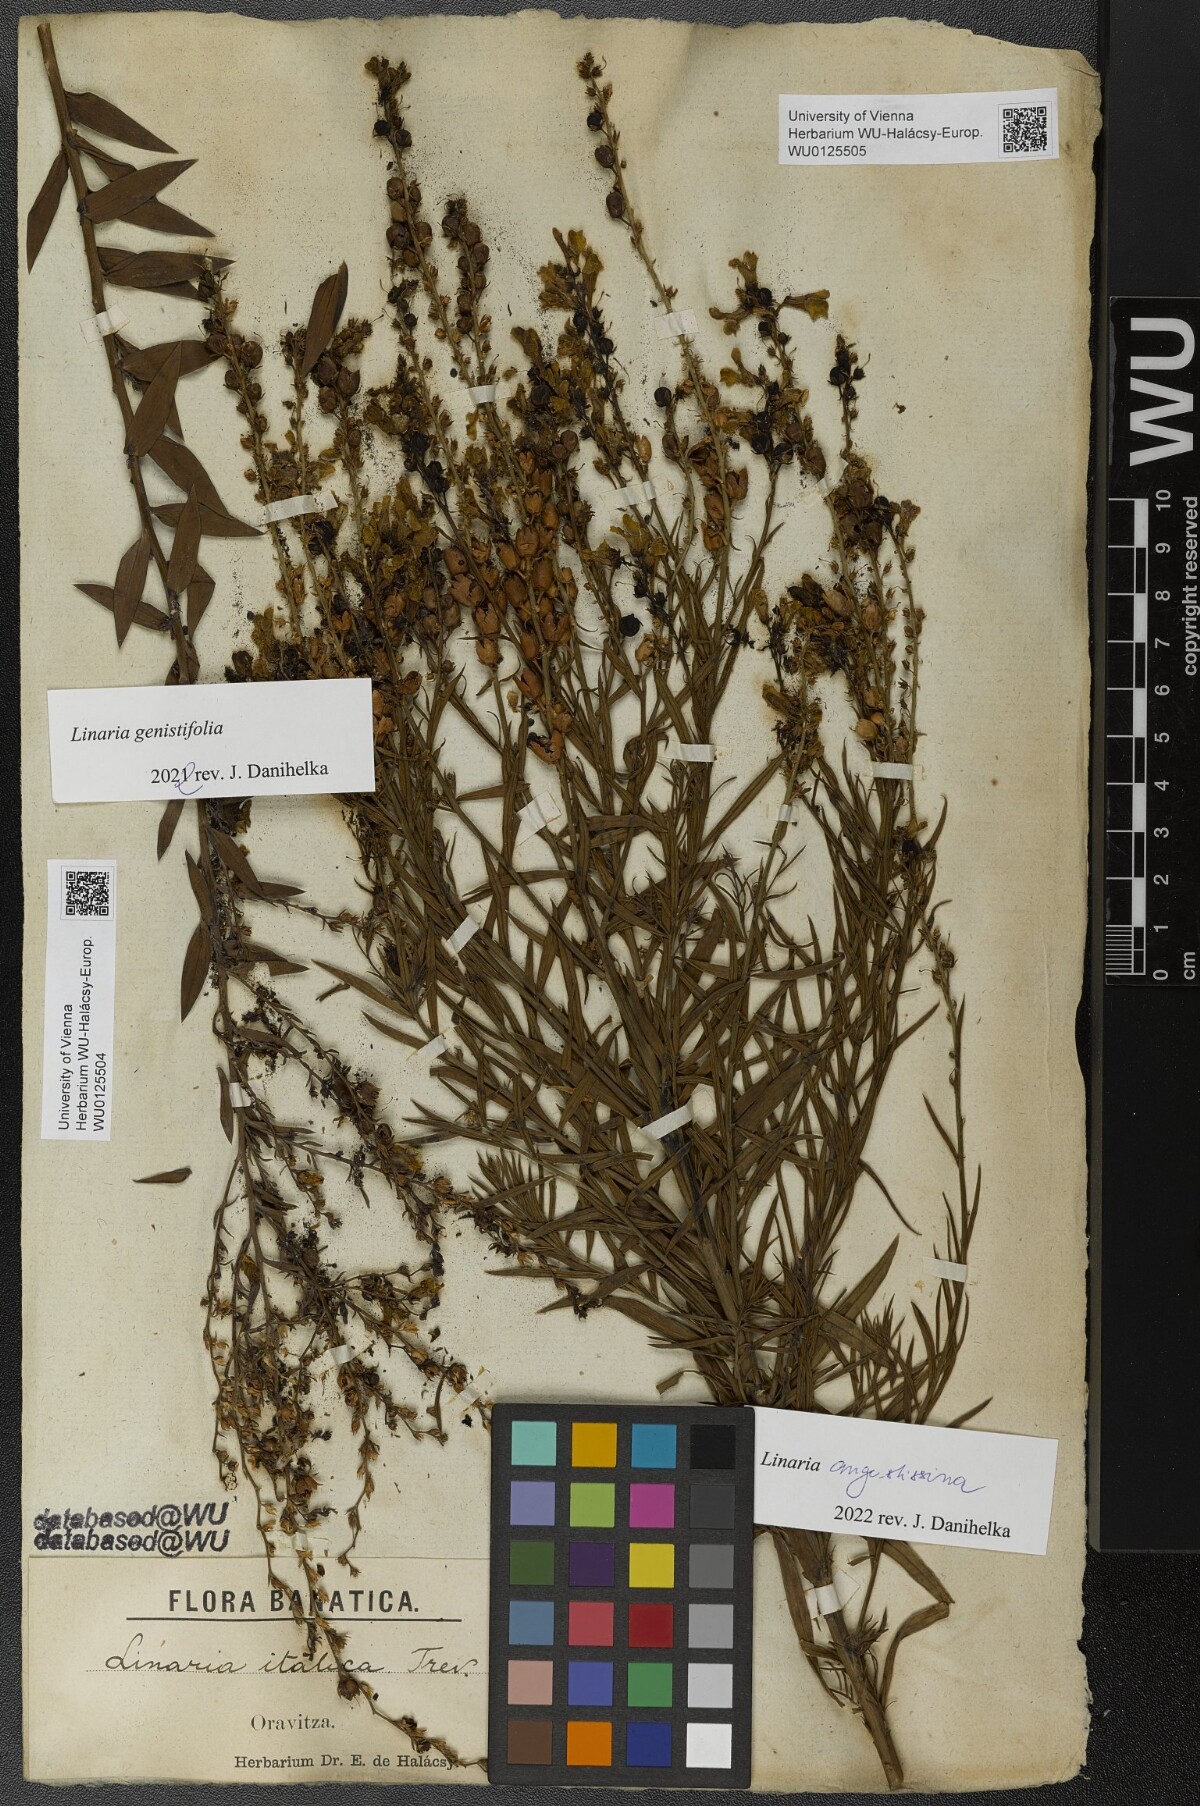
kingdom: Plantae
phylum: Tracheophyta
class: Magnoliopsida
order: Lamiales
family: Plantaginaceae
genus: Linaria
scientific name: Linaria angustissima
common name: Italian toadflax
